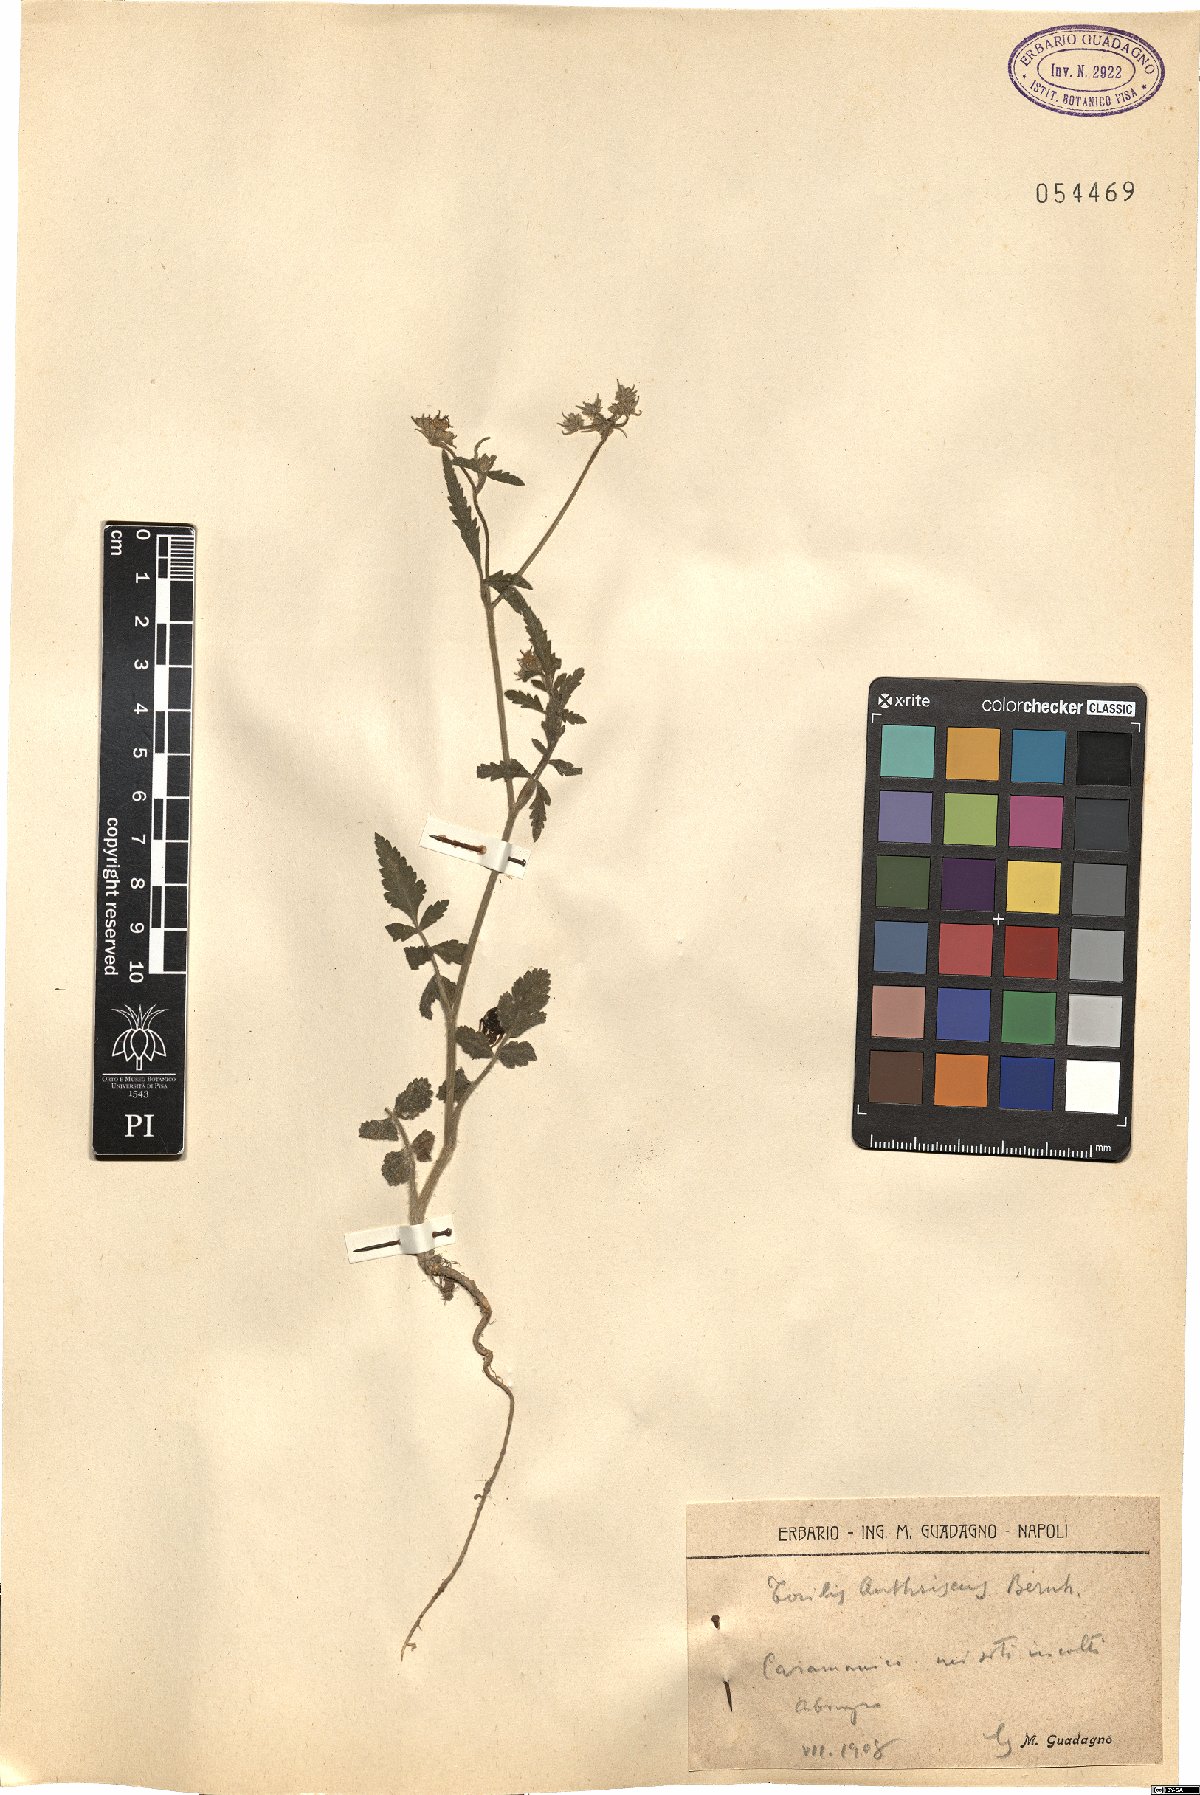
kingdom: Plantae
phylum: Tracheophyta
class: Magnoliopsida
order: Apiales
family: Apiaceae
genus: Torilis
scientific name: Torilis japonica
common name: Upright hedge-parsley
